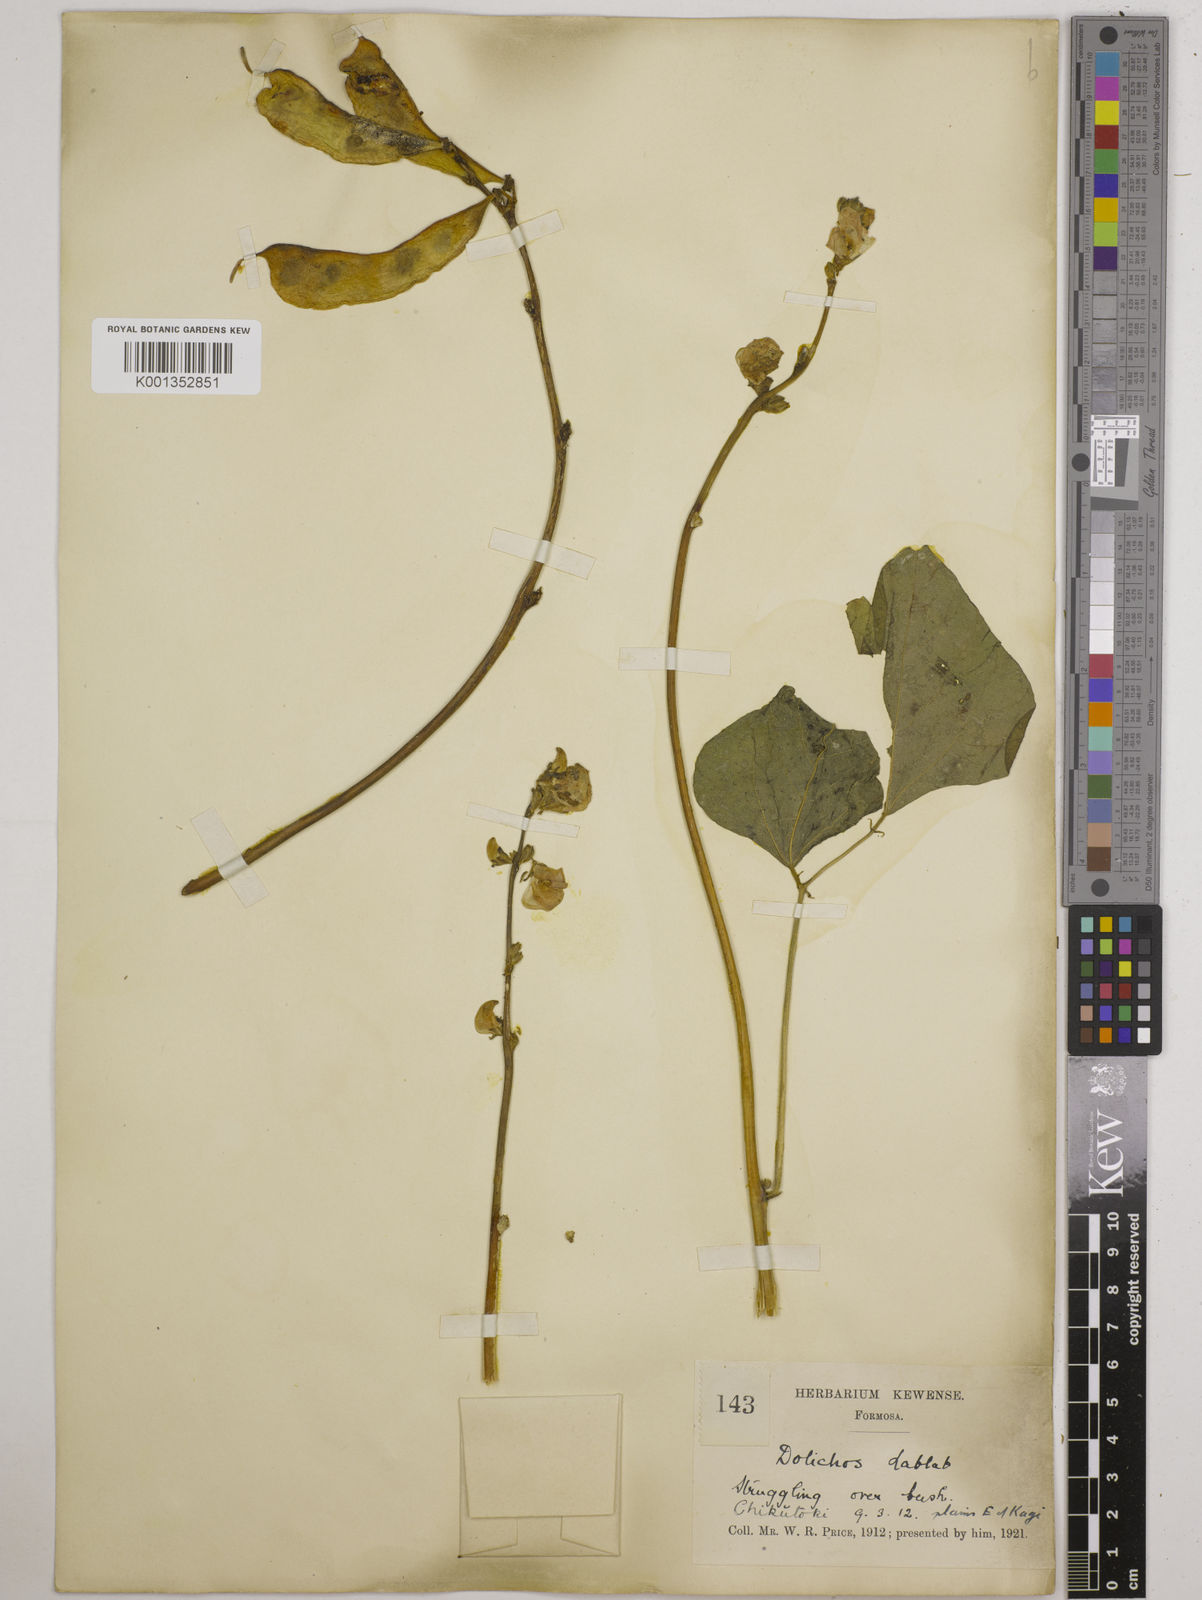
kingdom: Plantae
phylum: Tracheophyta
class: Magnoliopsida
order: Fabales
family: Fabaceae
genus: Lablab
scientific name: Lablab purpureus
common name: Lablab-bean
